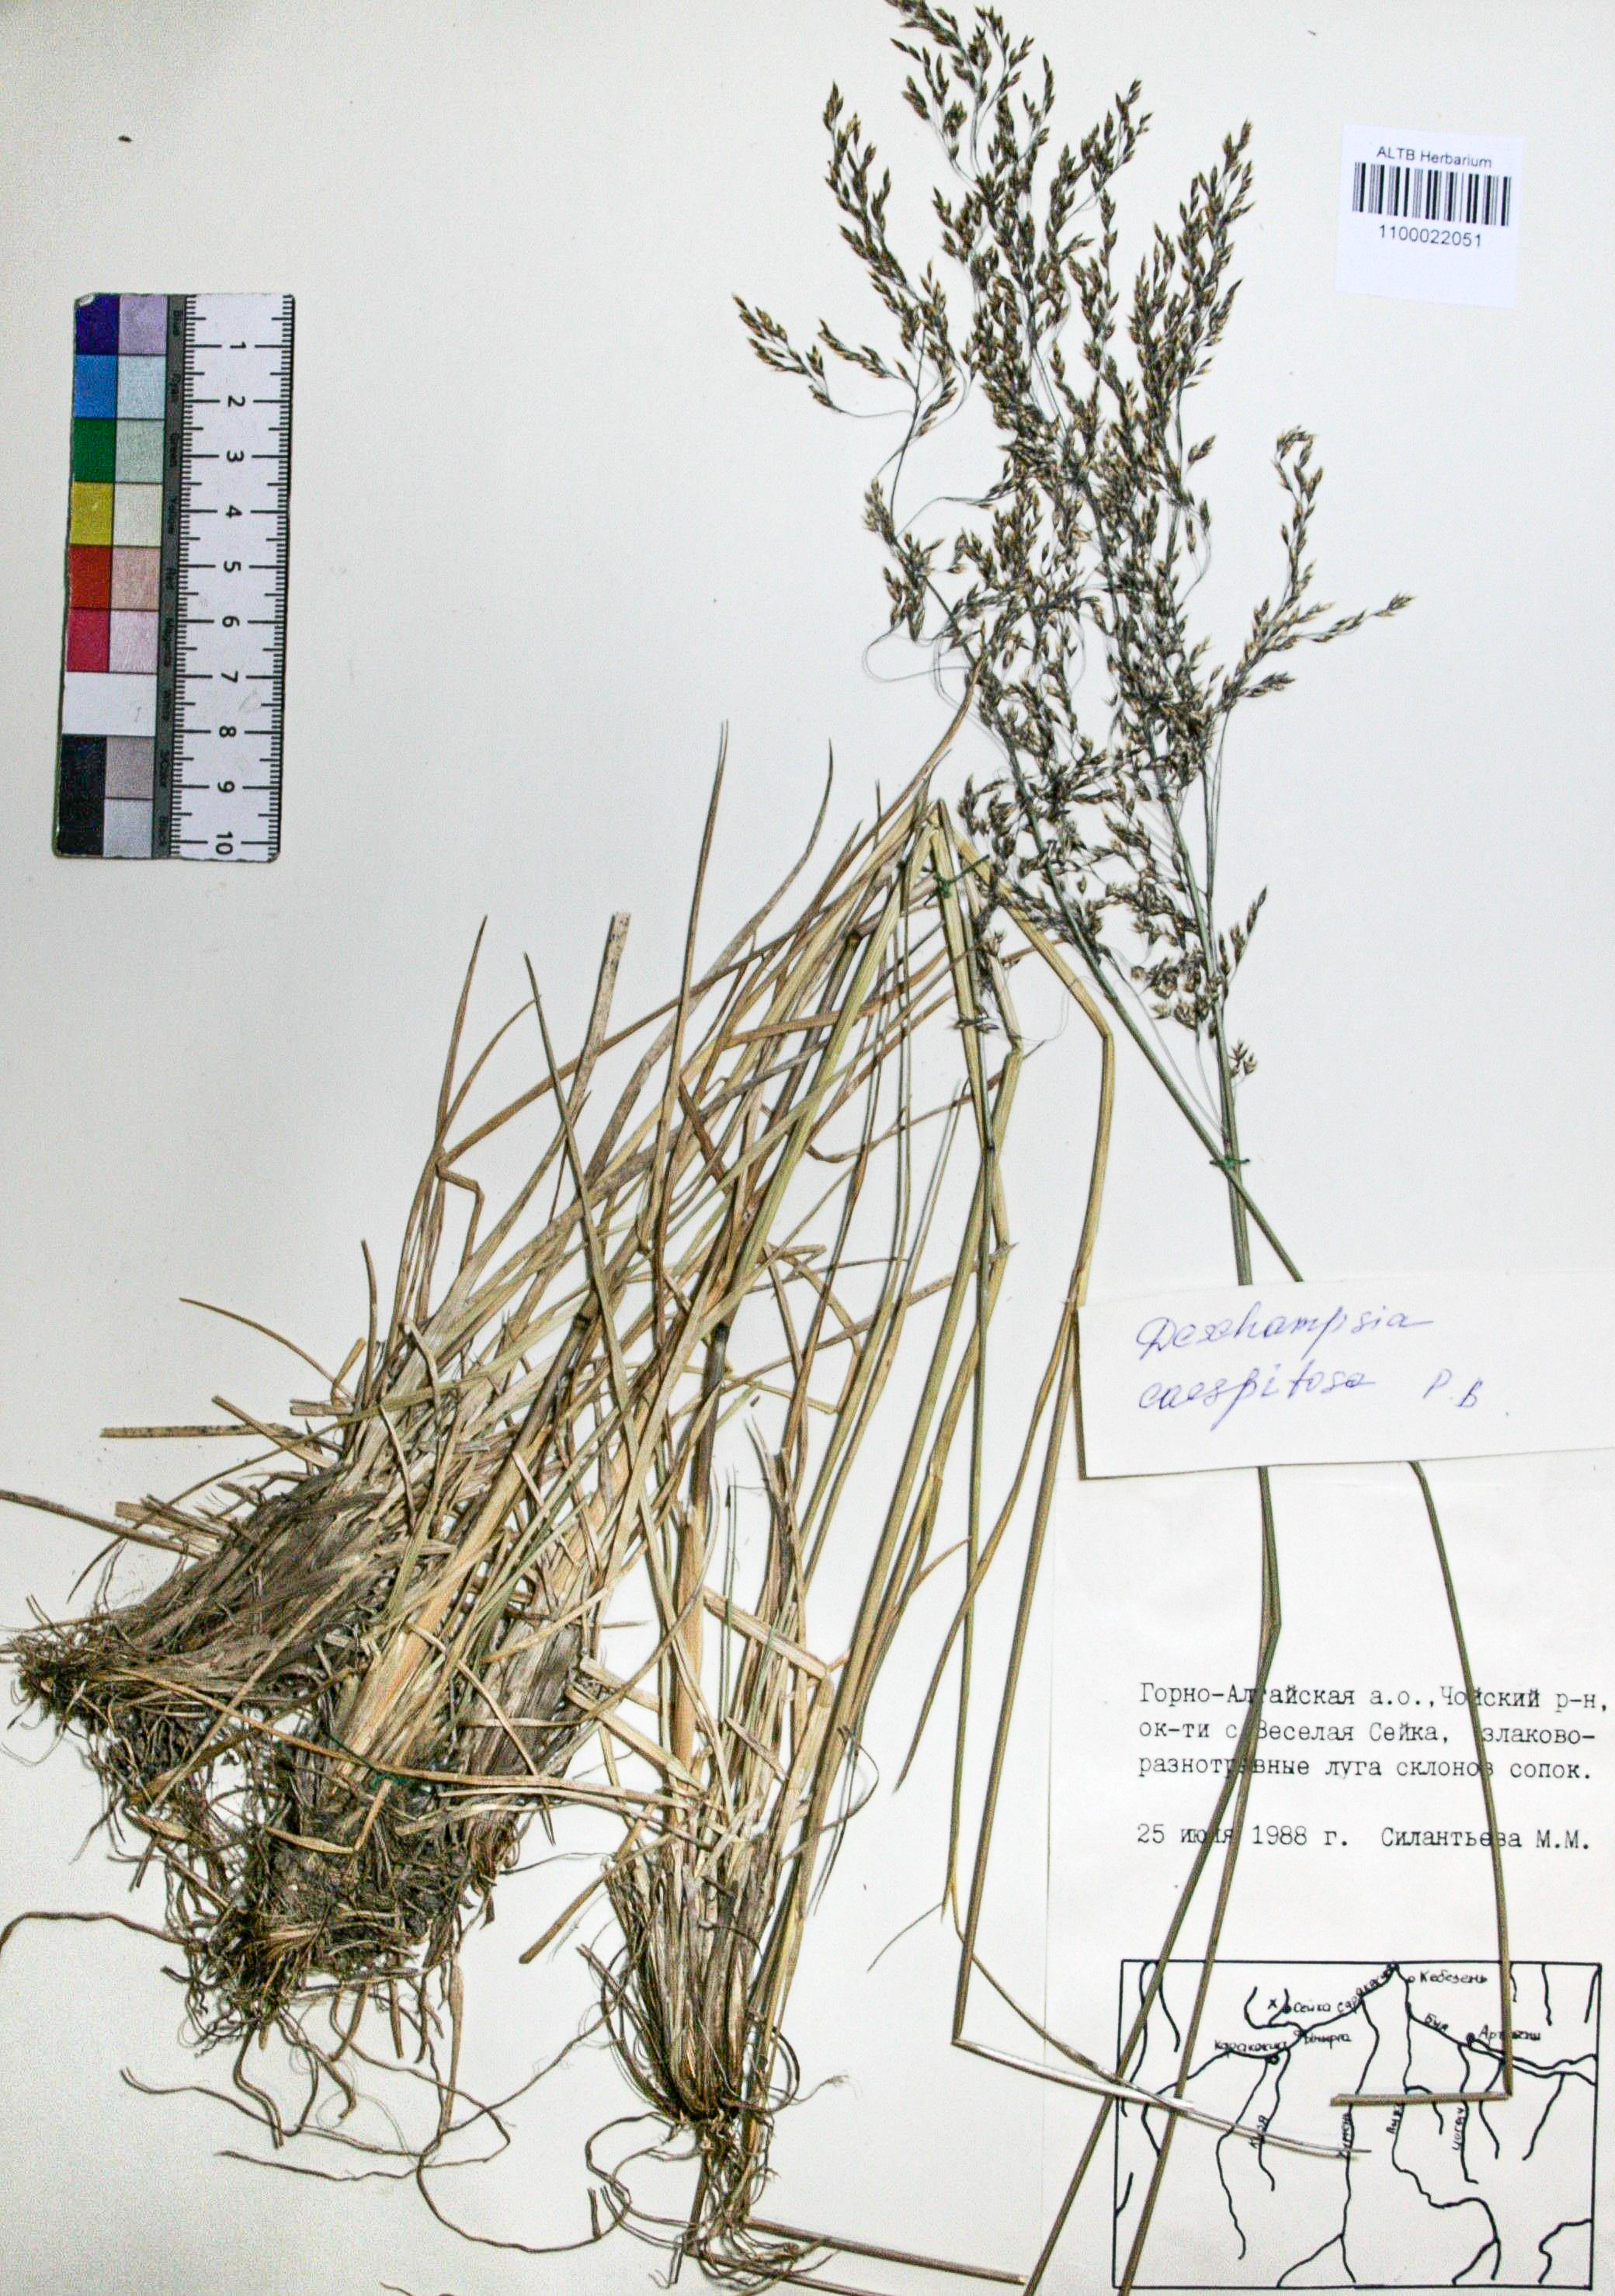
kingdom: Plantae
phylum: Tracheophyta
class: Liliopsida
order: Poales
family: Poaceae
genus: Deschampsia
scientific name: Deschampsia cespitosa
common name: Tufted hair-grass
